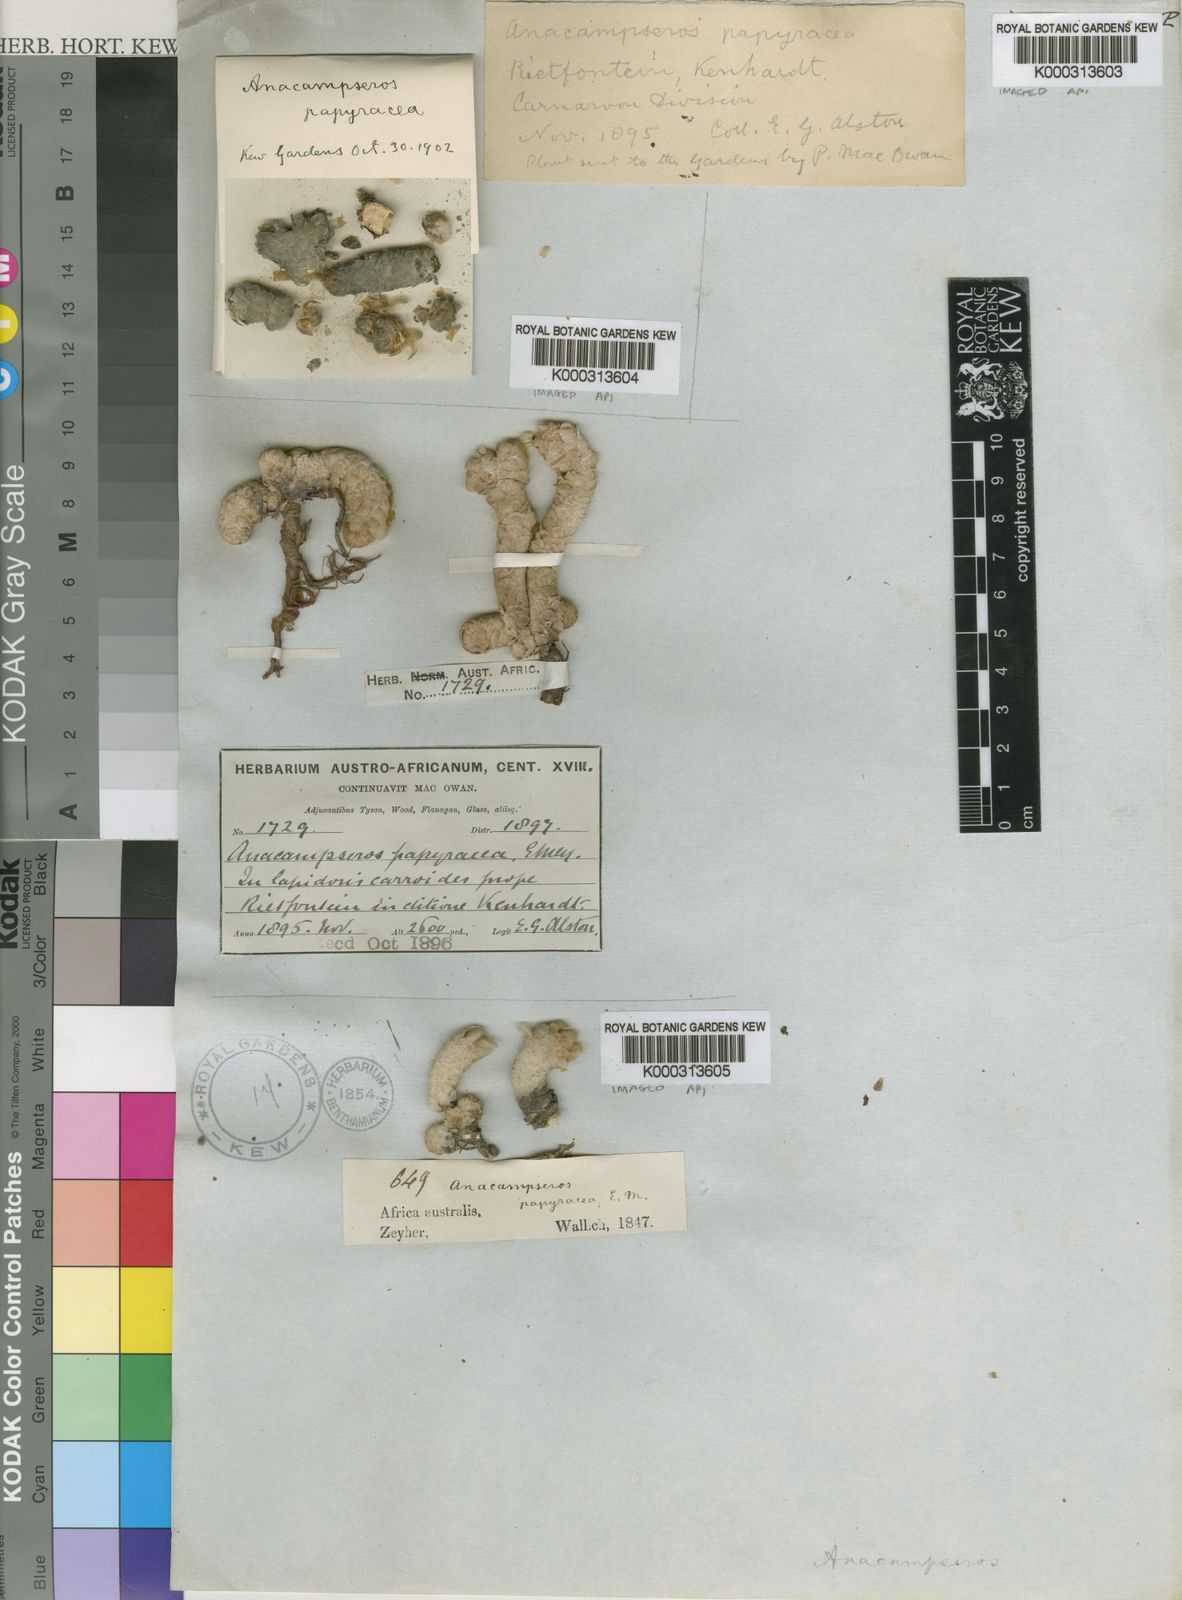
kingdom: Plantae
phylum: Tracheophyta
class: Magnoliopsida
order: Caryophyllales
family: Anacampserotaceae
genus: Anacampseros
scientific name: Anacampseros
